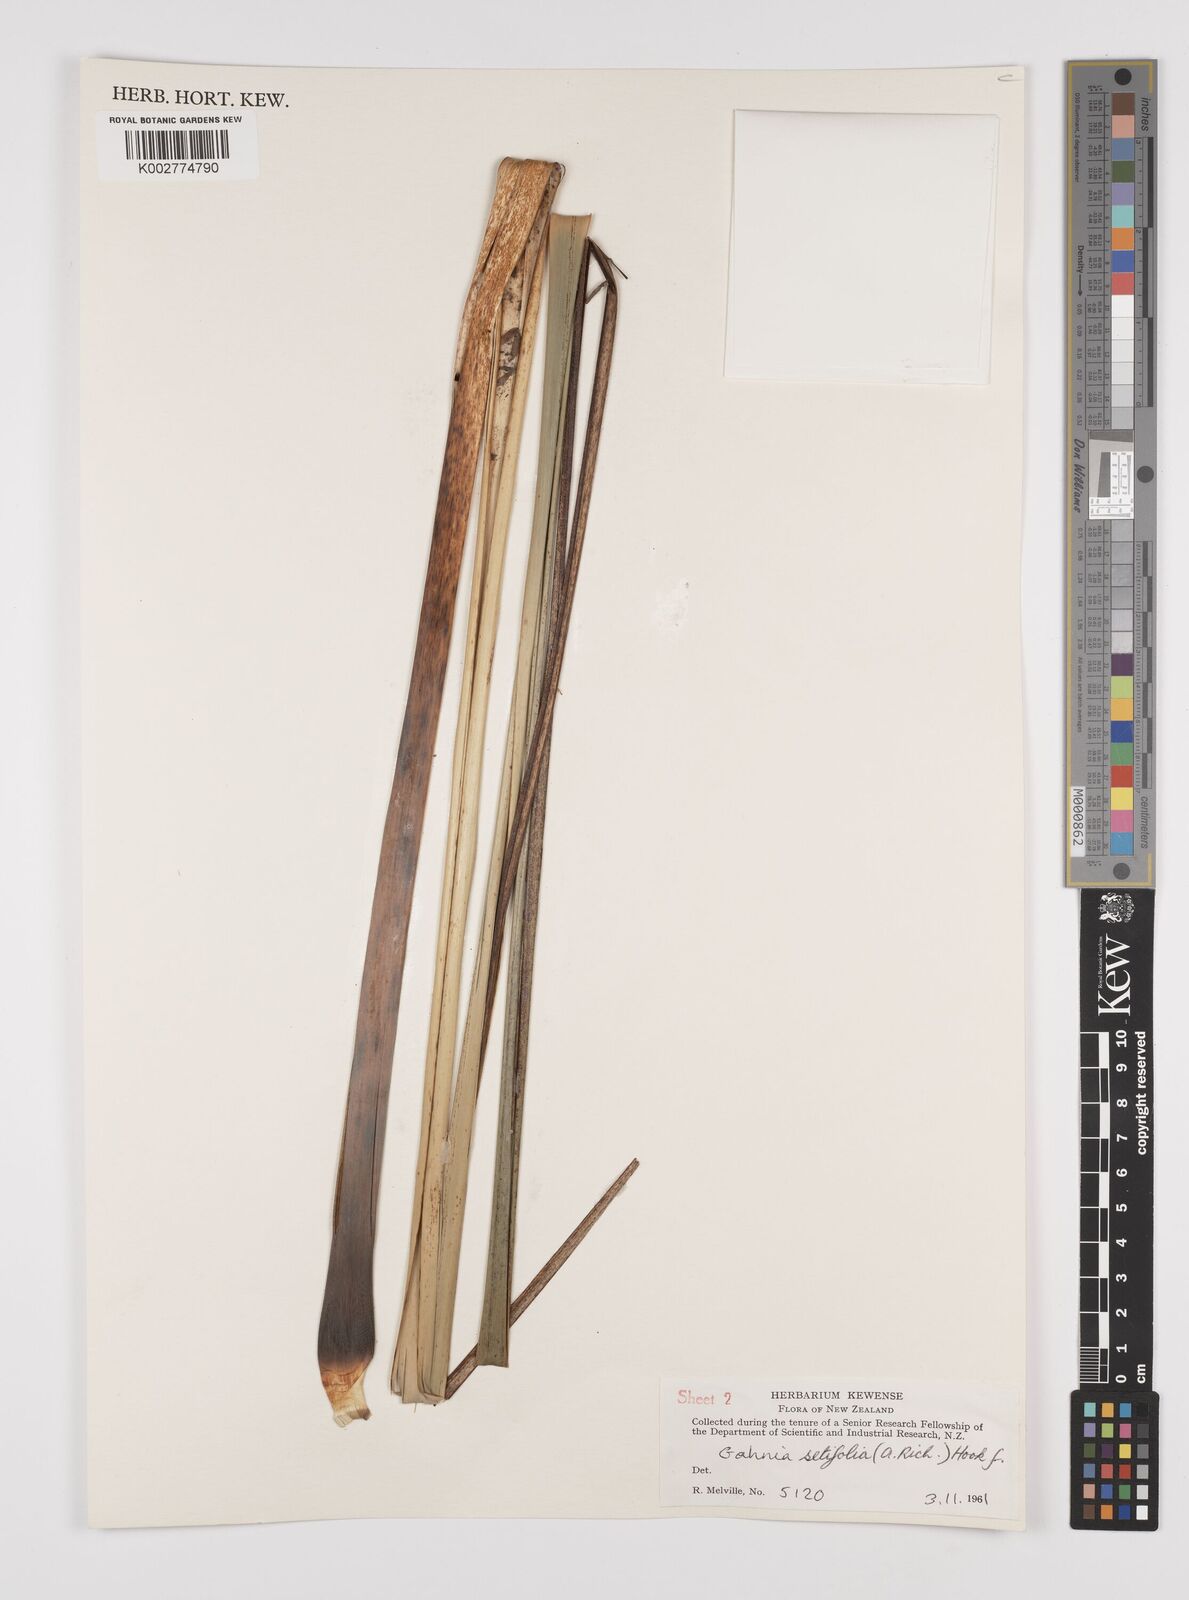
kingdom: Plantae
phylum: Tracheophyta
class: Liliopsida
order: Poales
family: Cyperaceae
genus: Gahnia
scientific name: Gahnia setifolia
